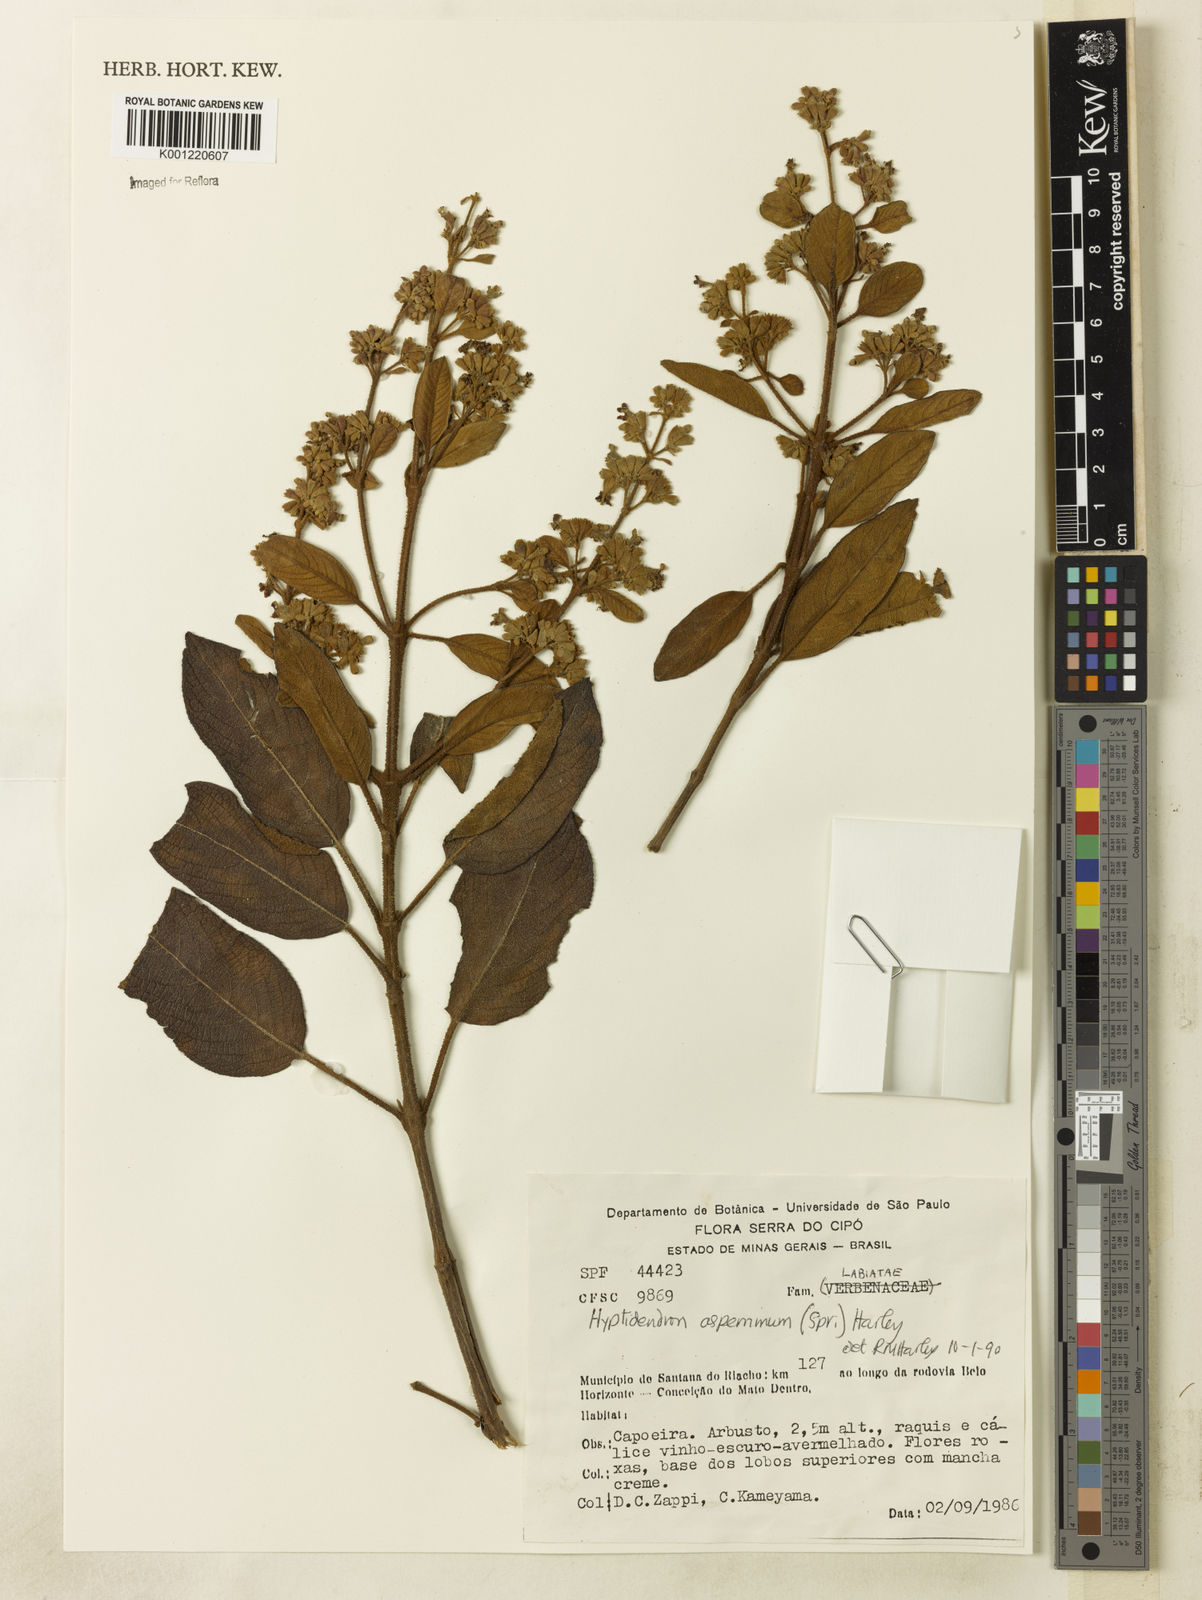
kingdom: Plantae
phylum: Tracheophyta
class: Magnoliopsida
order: Lamiales
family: Lamiaceae
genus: Hyptidendron
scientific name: Hyptidendron asperrimum
